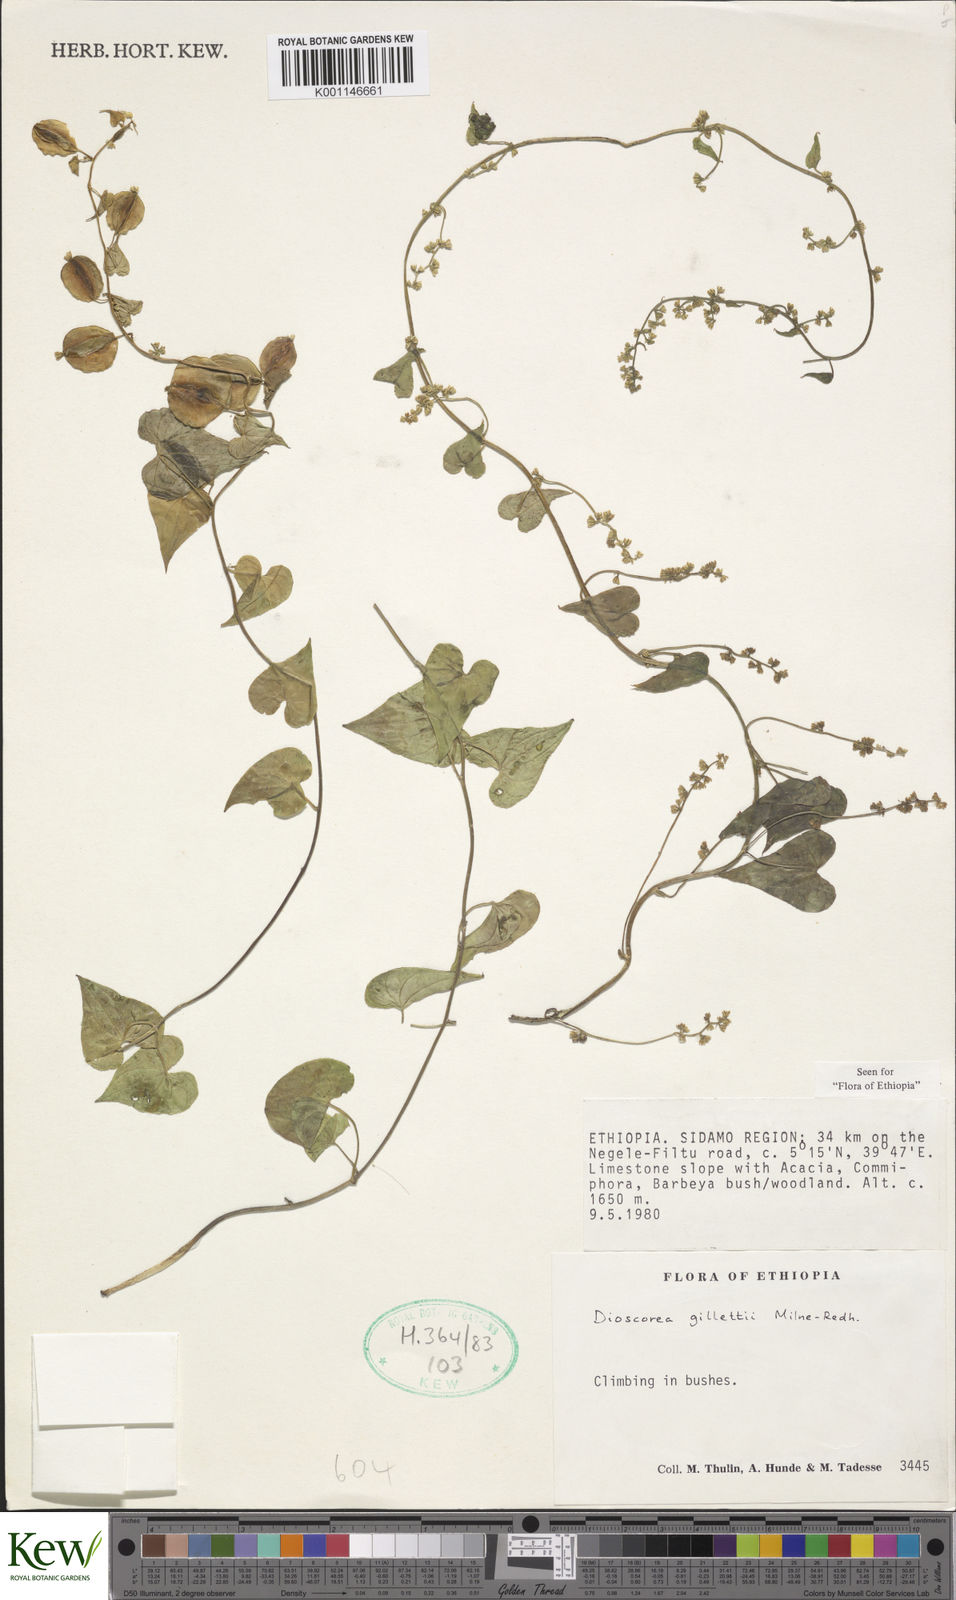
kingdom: Plantae
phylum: Tracheophyta
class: Liliopsida
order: Dioscoreales
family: Dioscoreaceae
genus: Dioscorea
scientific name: Dioscorea gillettii
